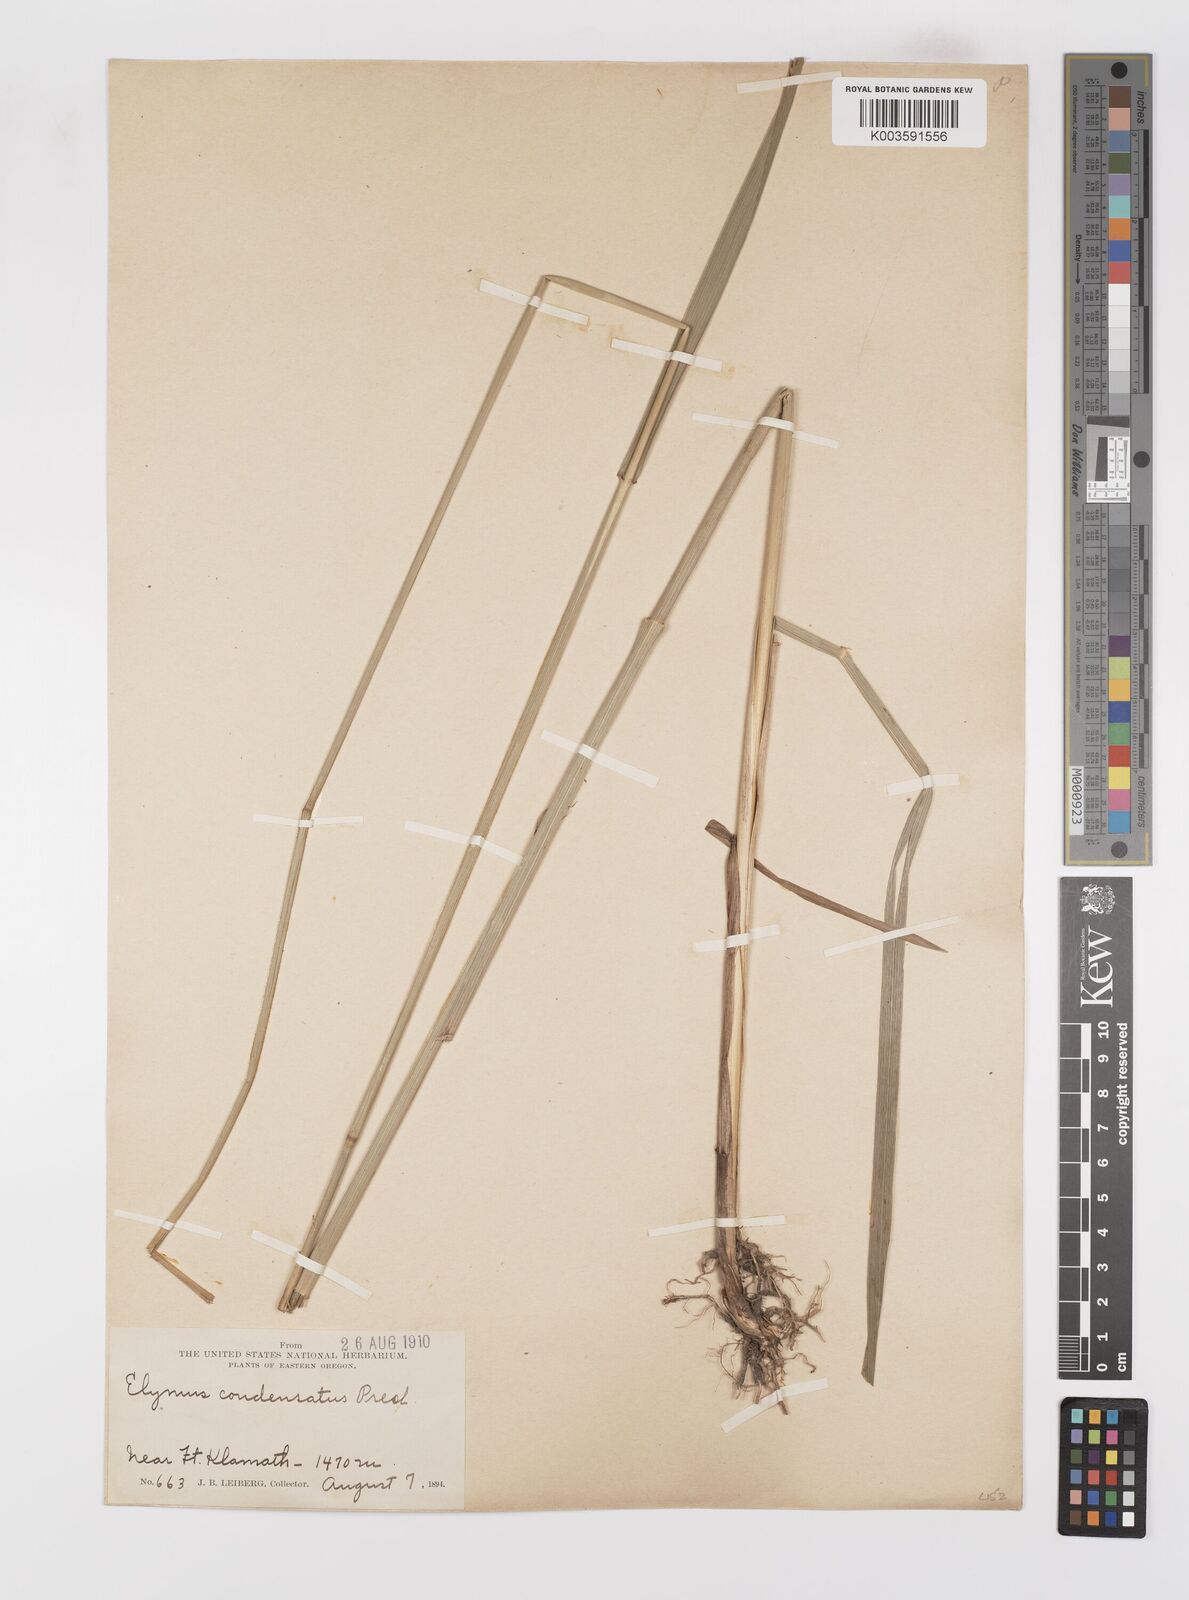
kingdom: Plantae
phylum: Tracheophyta
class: Liliopsida
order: Poales
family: Poaceae
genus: Leymus
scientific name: Leymus condensatus
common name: Giant wild rye
